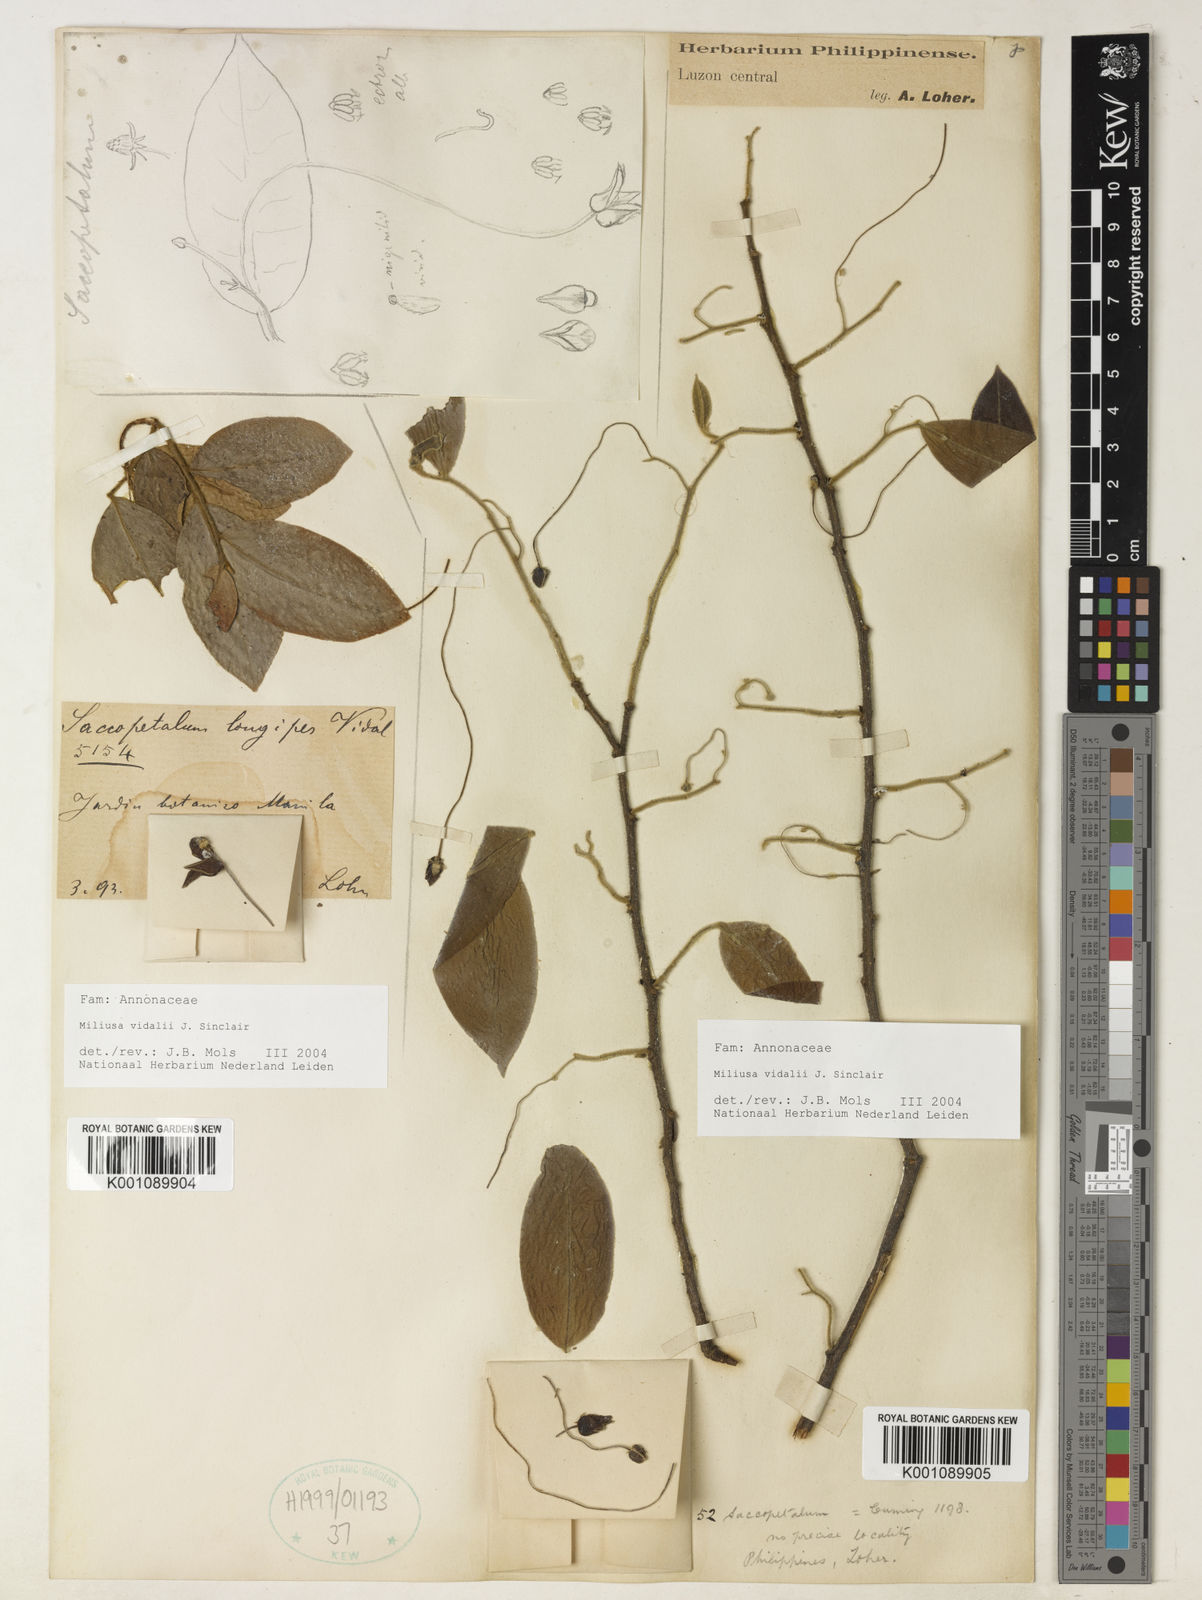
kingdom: Plantae
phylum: Tracheophyta
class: Magnoliopsida
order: Magnoliales
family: Annonaceae
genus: Miliusa
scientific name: Miliusa longipes
